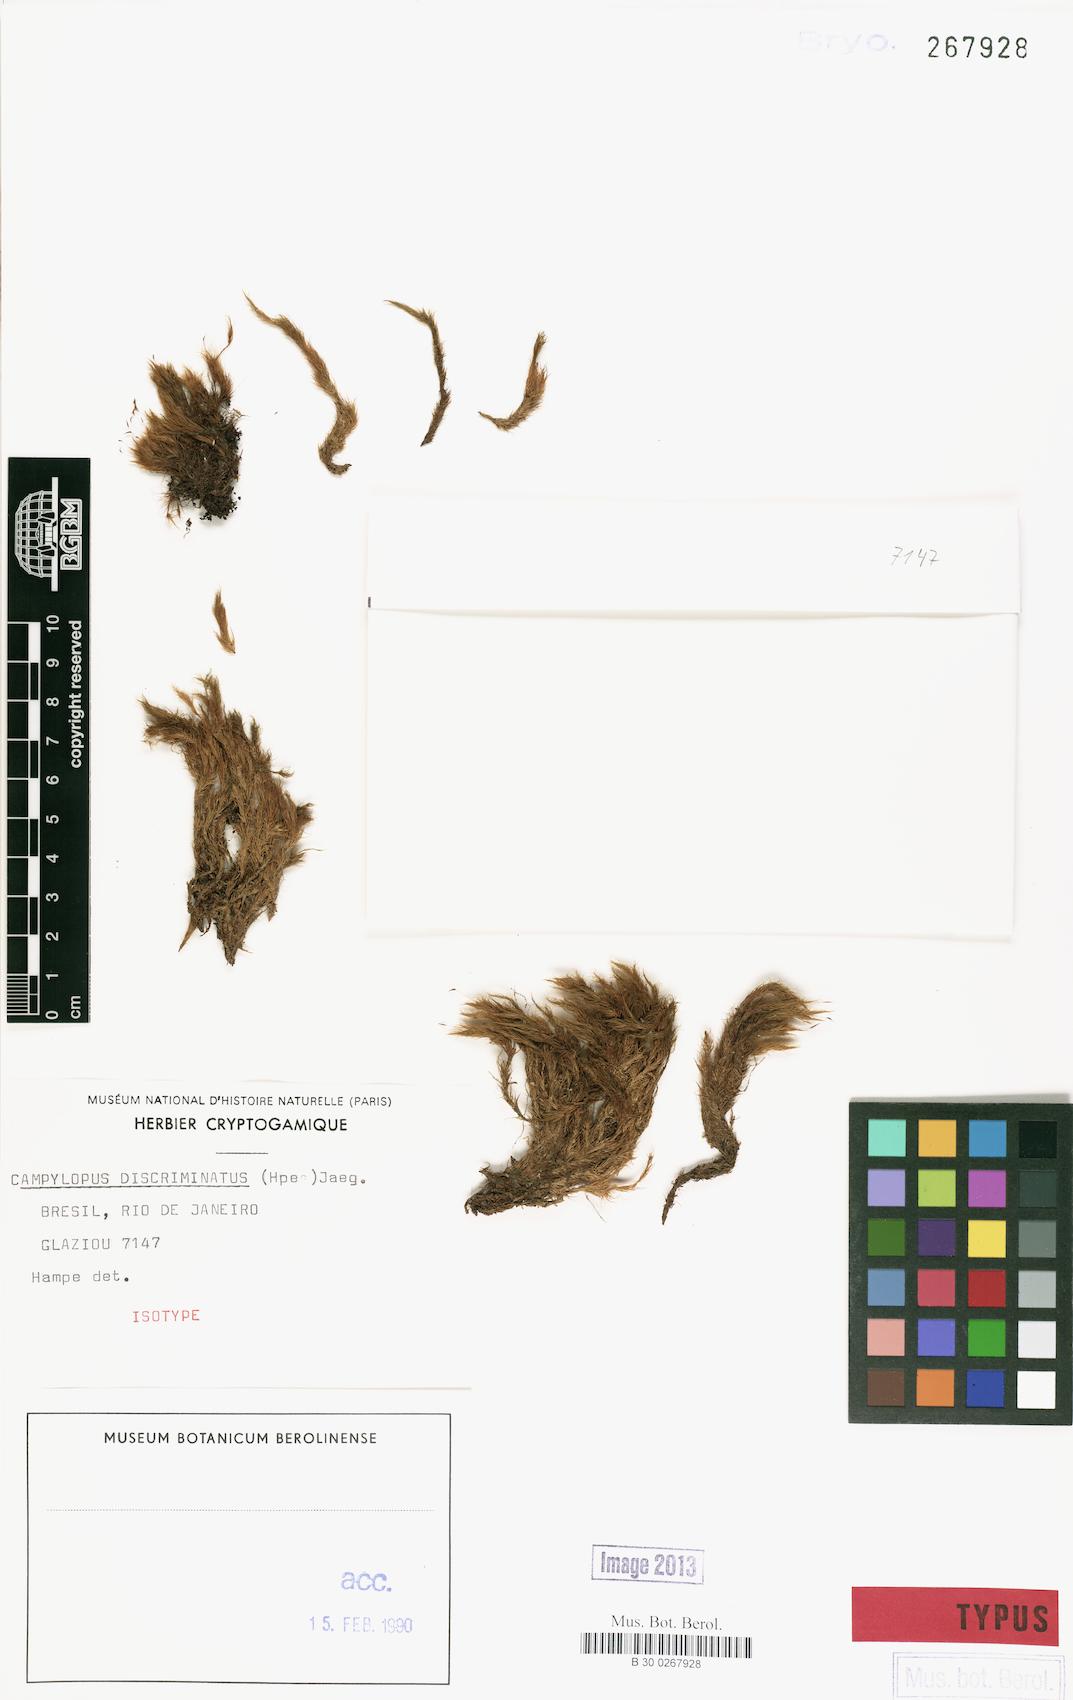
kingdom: Plantae
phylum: Bryophyta
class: Bryopsida
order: Dicranales
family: Leucobryaceae
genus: Campylopus
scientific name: Campylopus arctocarpus
